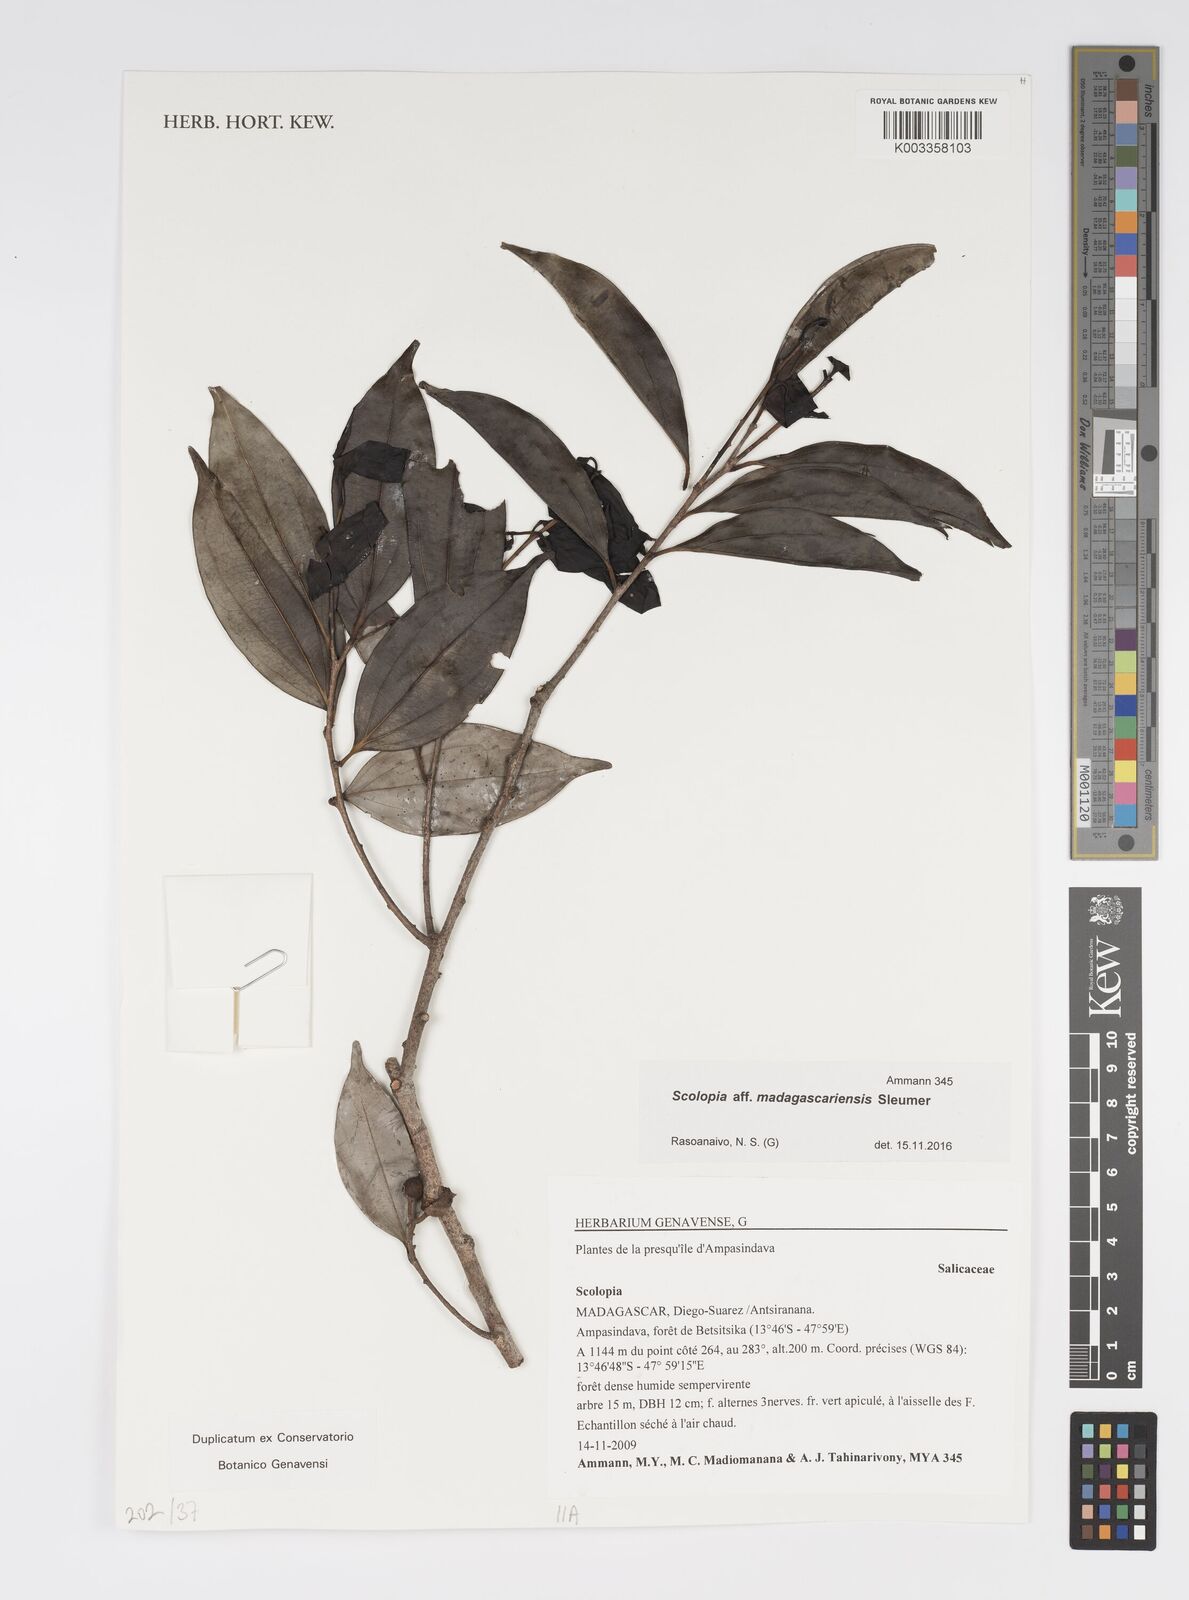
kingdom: Plantae
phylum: Tracheophyta
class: Magnoliopsida
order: Malpighiales
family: Salicaceae
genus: Scolopia
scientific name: Scolopia madagascariensis
